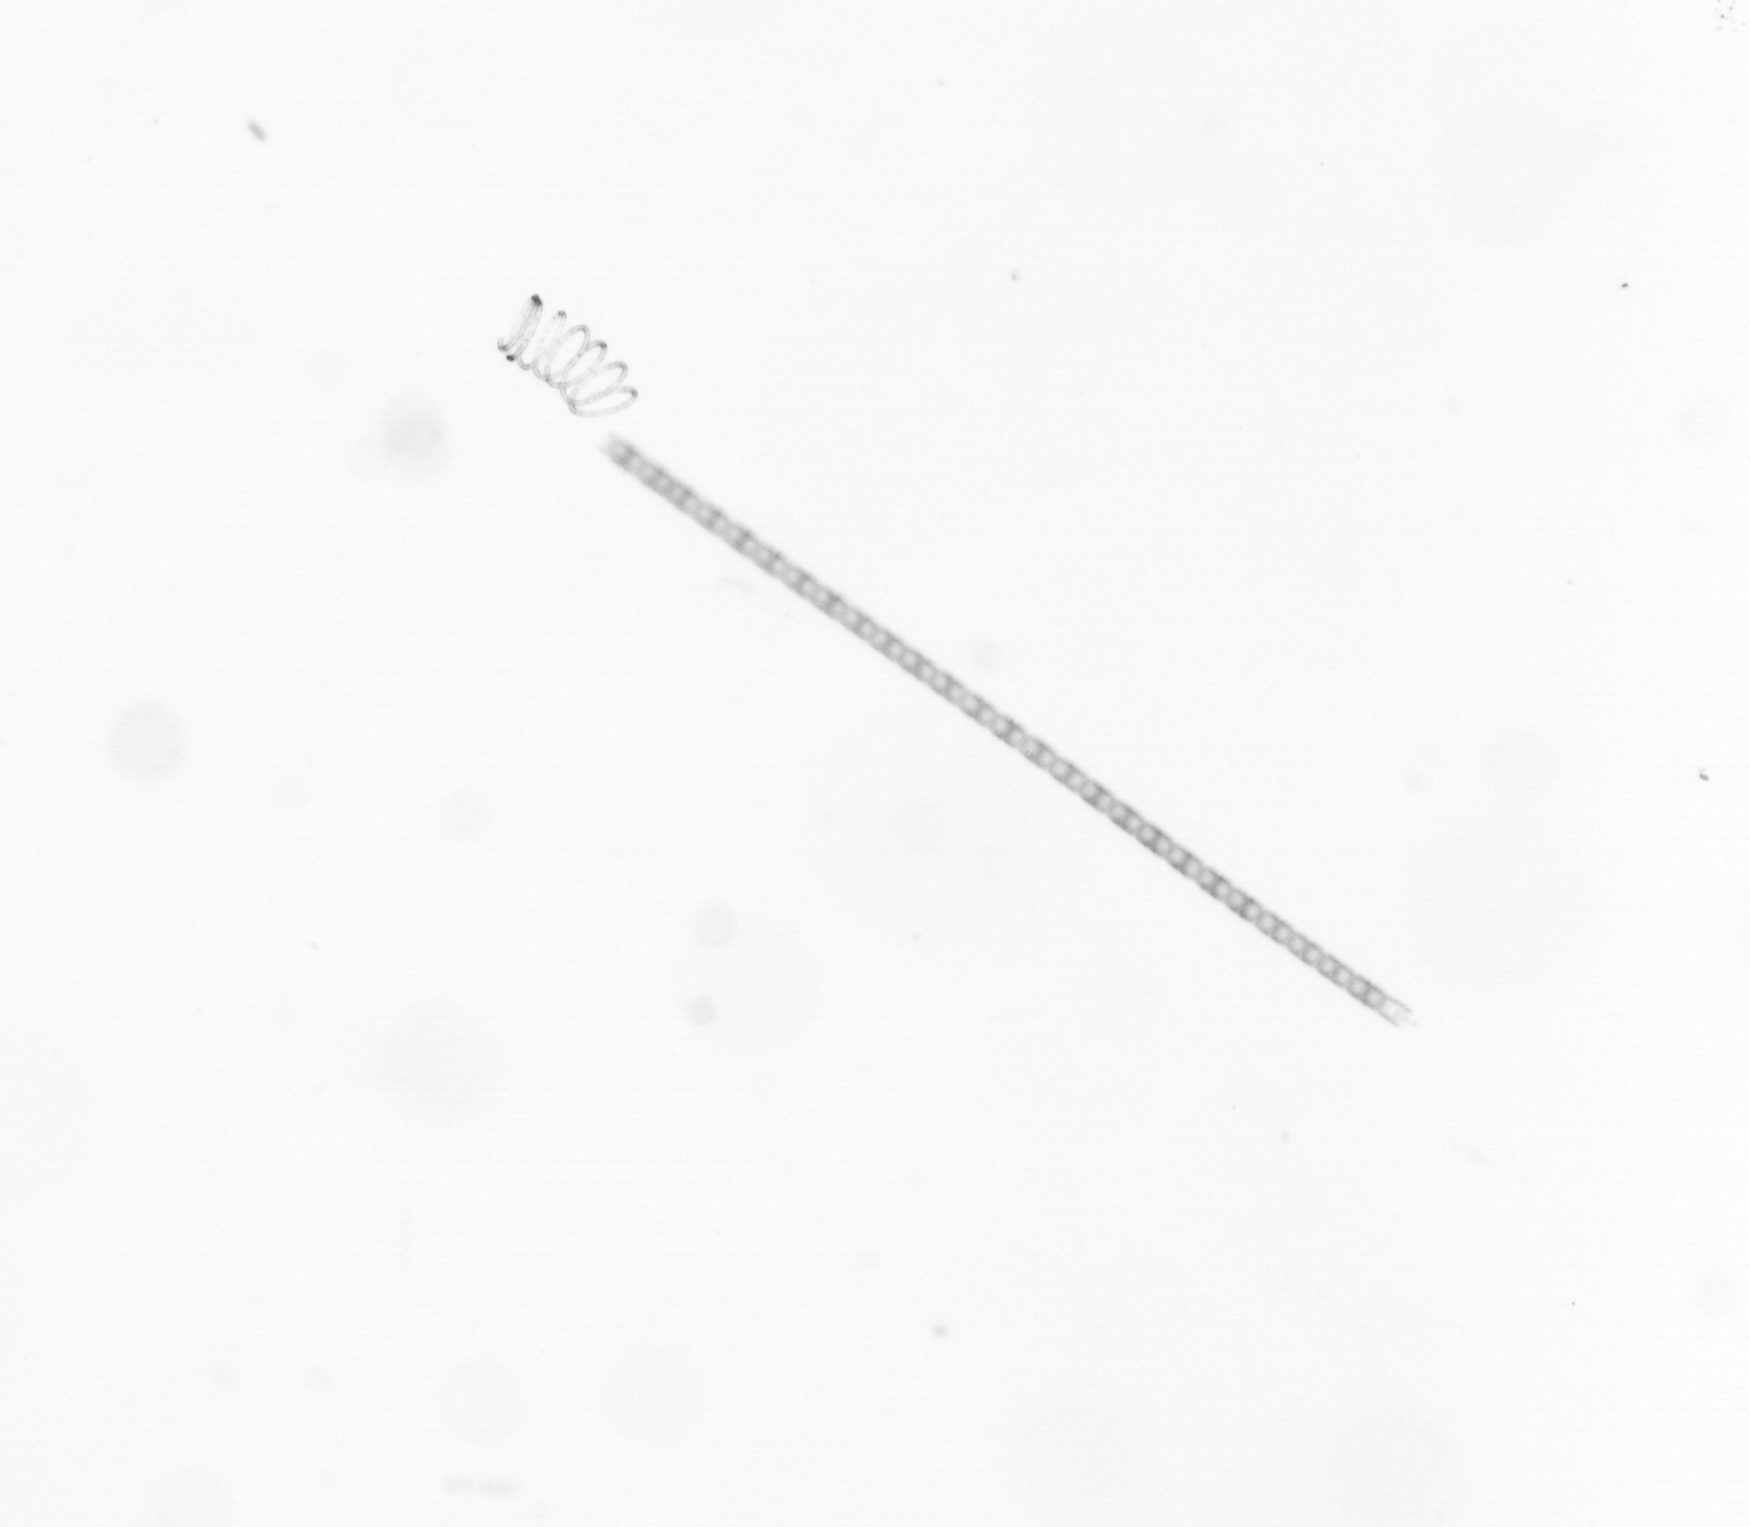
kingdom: Chromista
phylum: Ochrophyta
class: Bacillariophyceae
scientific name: Bacillariophyceae
